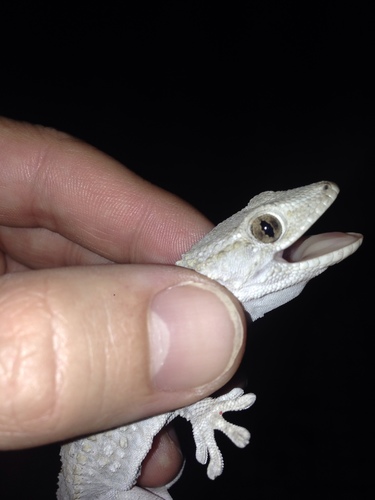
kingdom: Animalia
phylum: Chordata
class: Squamata
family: Phyllodactylidae
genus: Tarentola
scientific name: Tarentola mauritanica
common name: Moorish gecko
